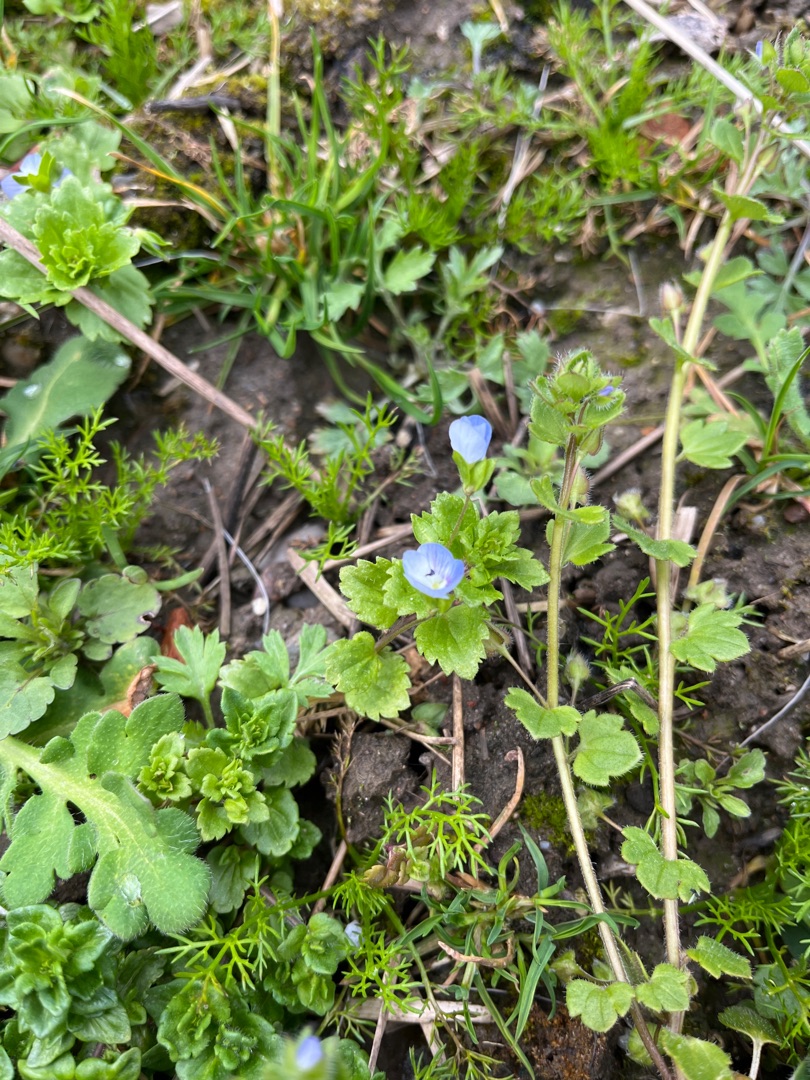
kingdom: Plantae
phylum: Tracheophyta
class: Magnoliopsida
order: Lamiales
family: Plantaginaceae
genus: Veronica
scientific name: Veronica persica
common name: Storkronet ærenpris
